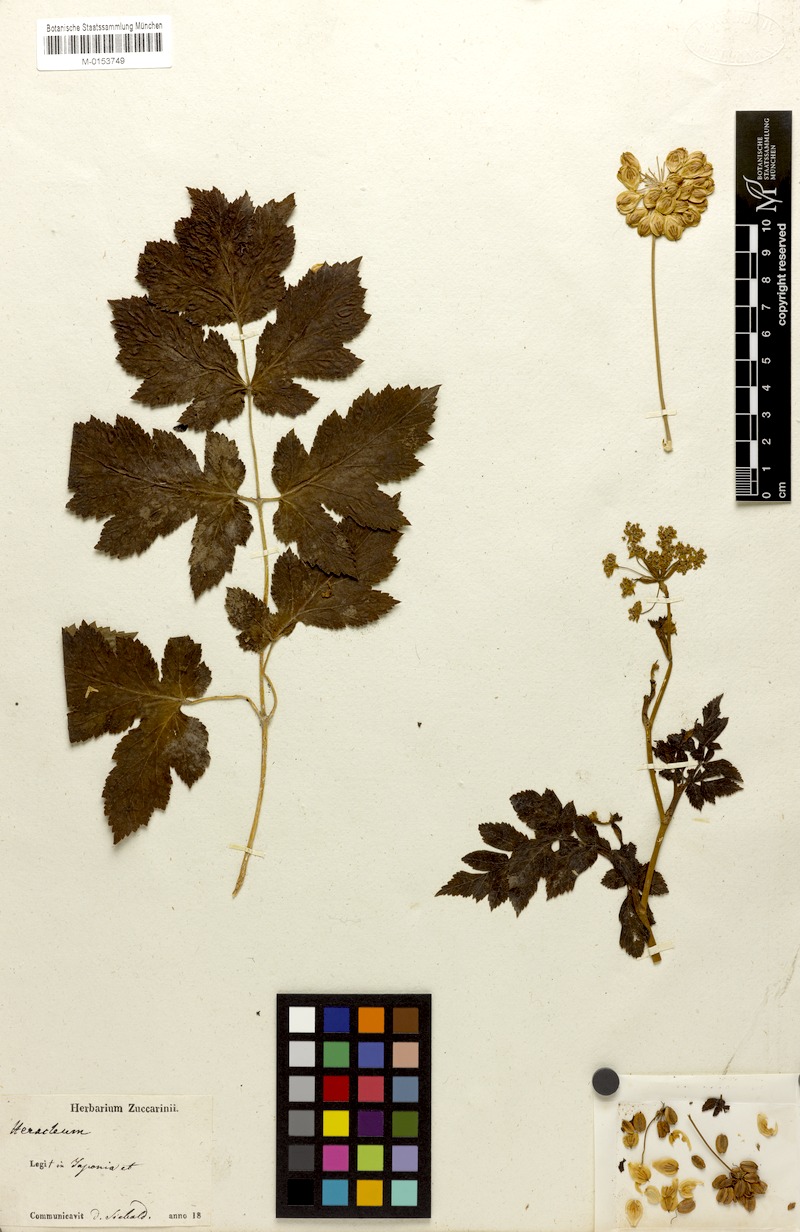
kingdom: Plantae
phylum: Tracheophyta
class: Magnoliopsida
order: Apiales
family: Apiaceae
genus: Heracleum
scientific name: Heracleum
